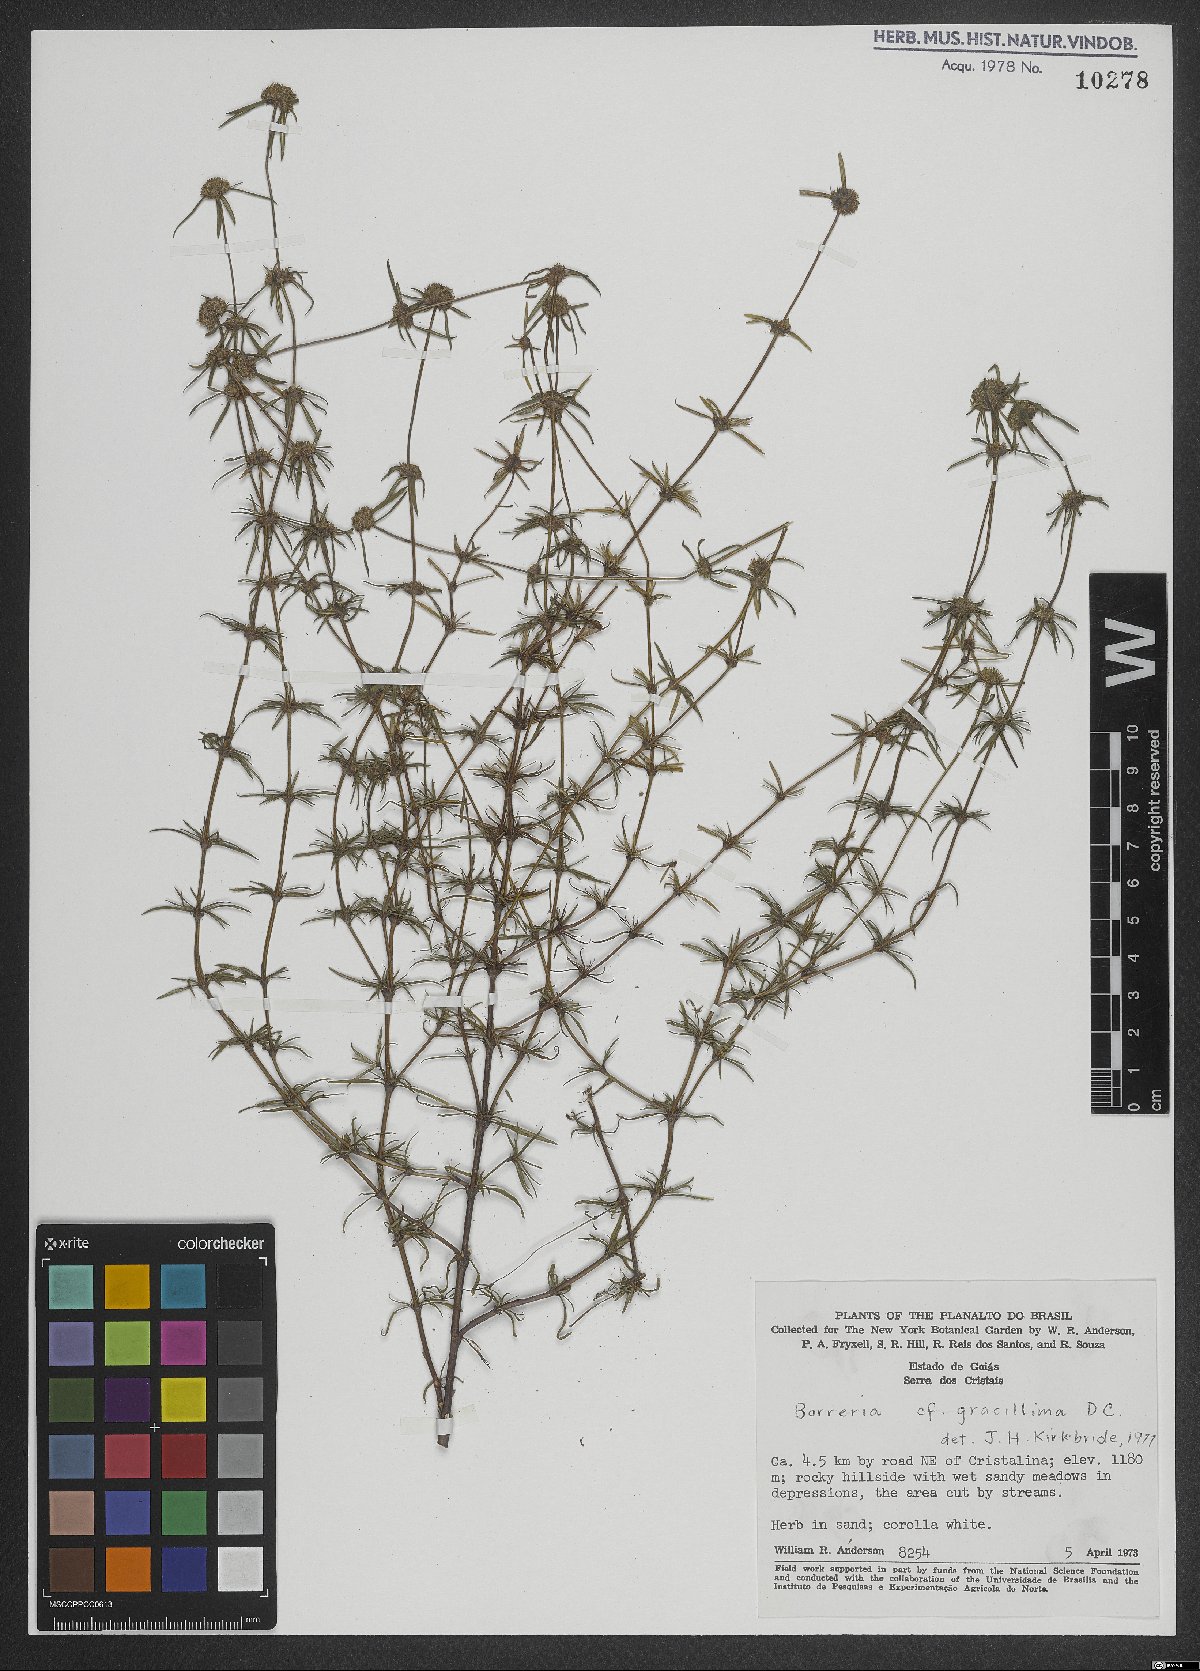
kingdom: Plantae
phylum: Tracheophyta
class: Magnoliopsida
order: Gentianales
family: Rubiaceae
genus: Spermacoce
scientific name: Spermacoce gracillima
